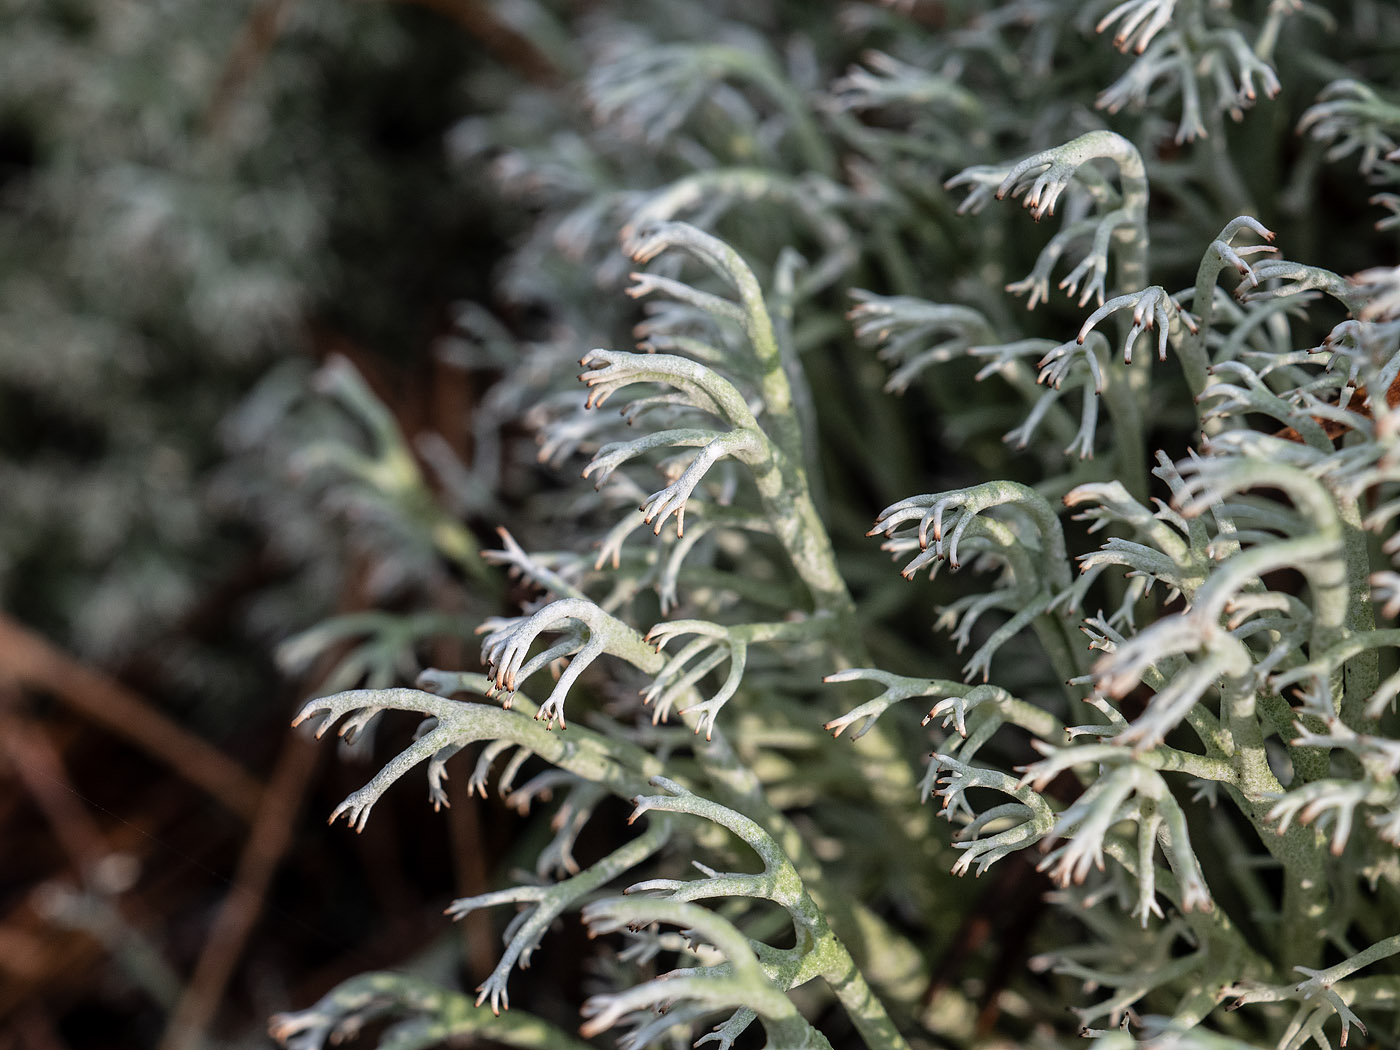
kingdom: Fungi
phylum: Ascomycota
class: Lecanoromycetes
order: Lecanorales
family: Cladoniaceae
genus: Cladonia
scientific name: Cladonia rangiferina
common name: askegrå rensdyrlav
